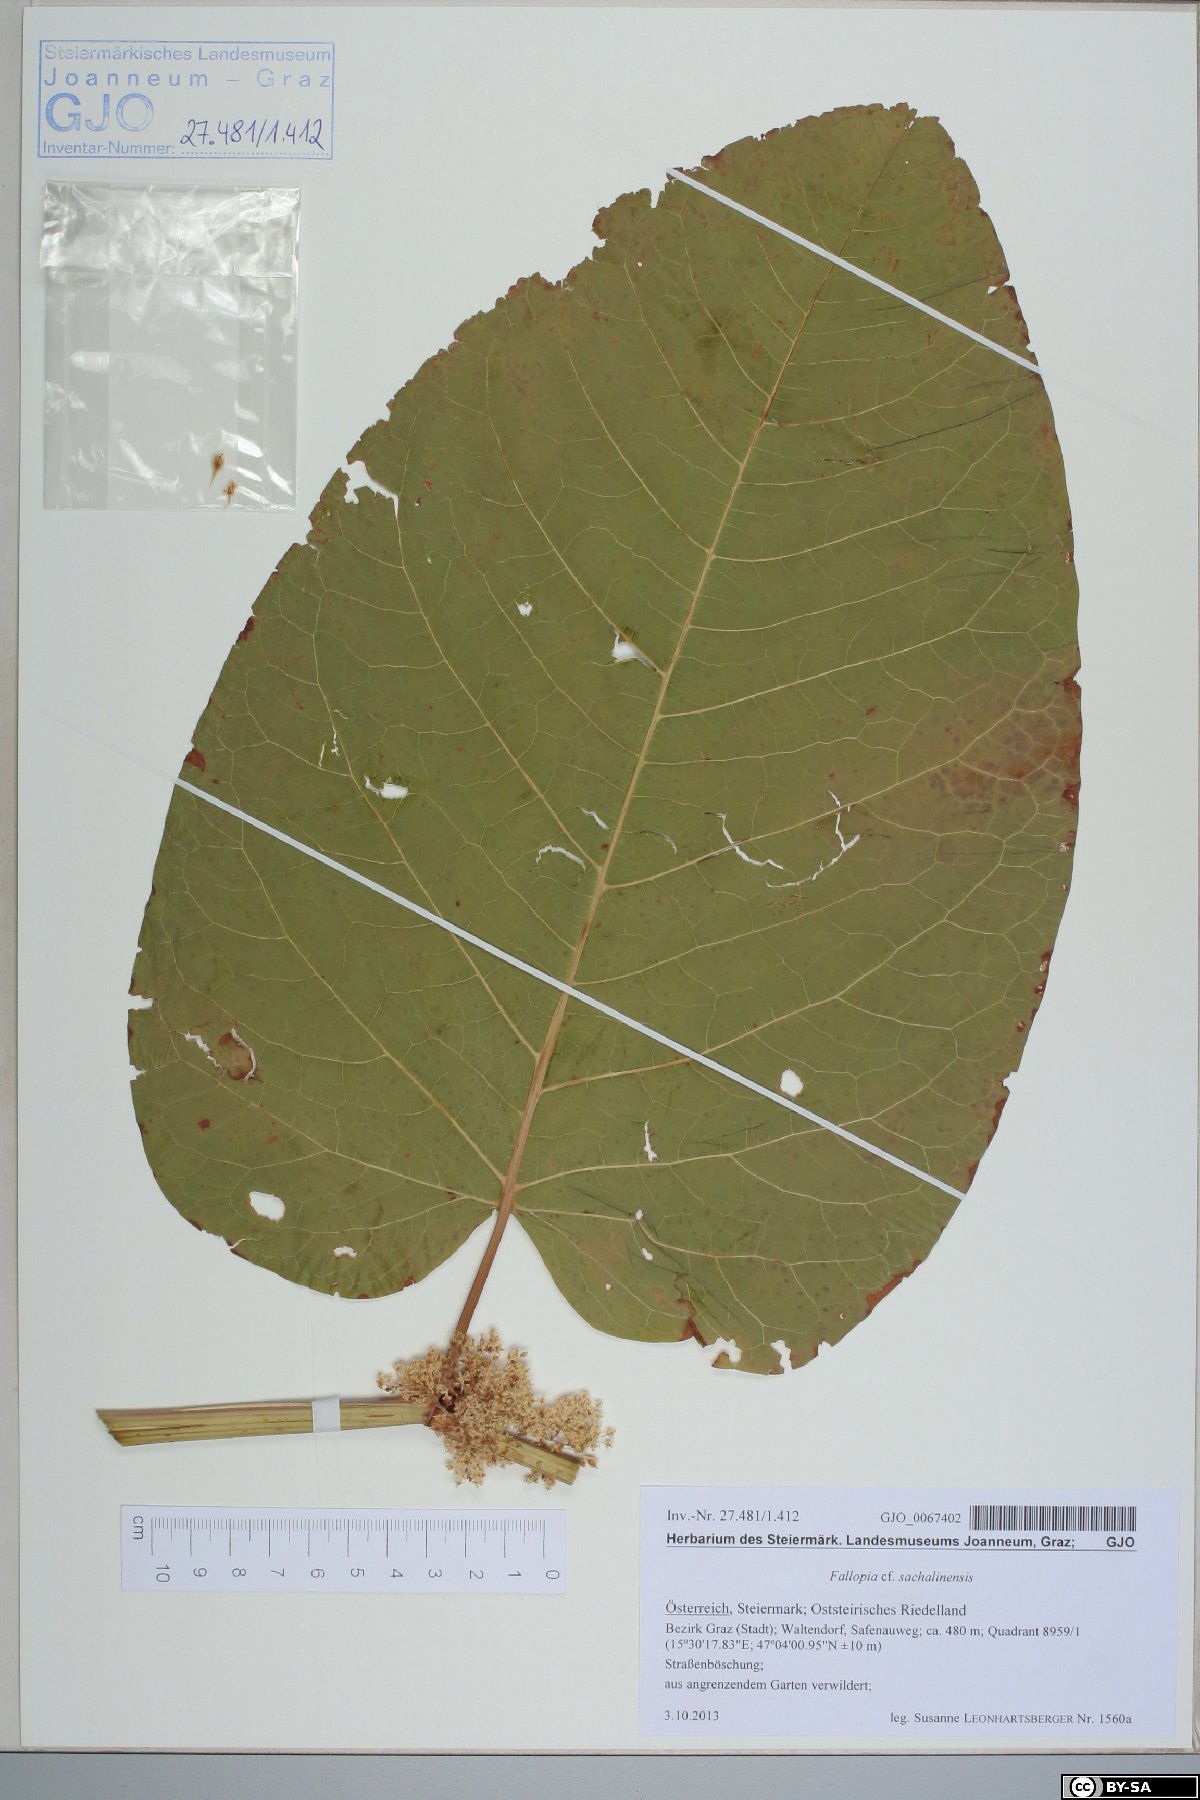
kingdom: Plantae
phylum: Tracheophyta
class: Magnoliopsida
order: Caryophyllales
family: Polygonaceae
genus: Reynoutria
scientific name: Reynoutria sachalinensis
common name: Giant knotweed
